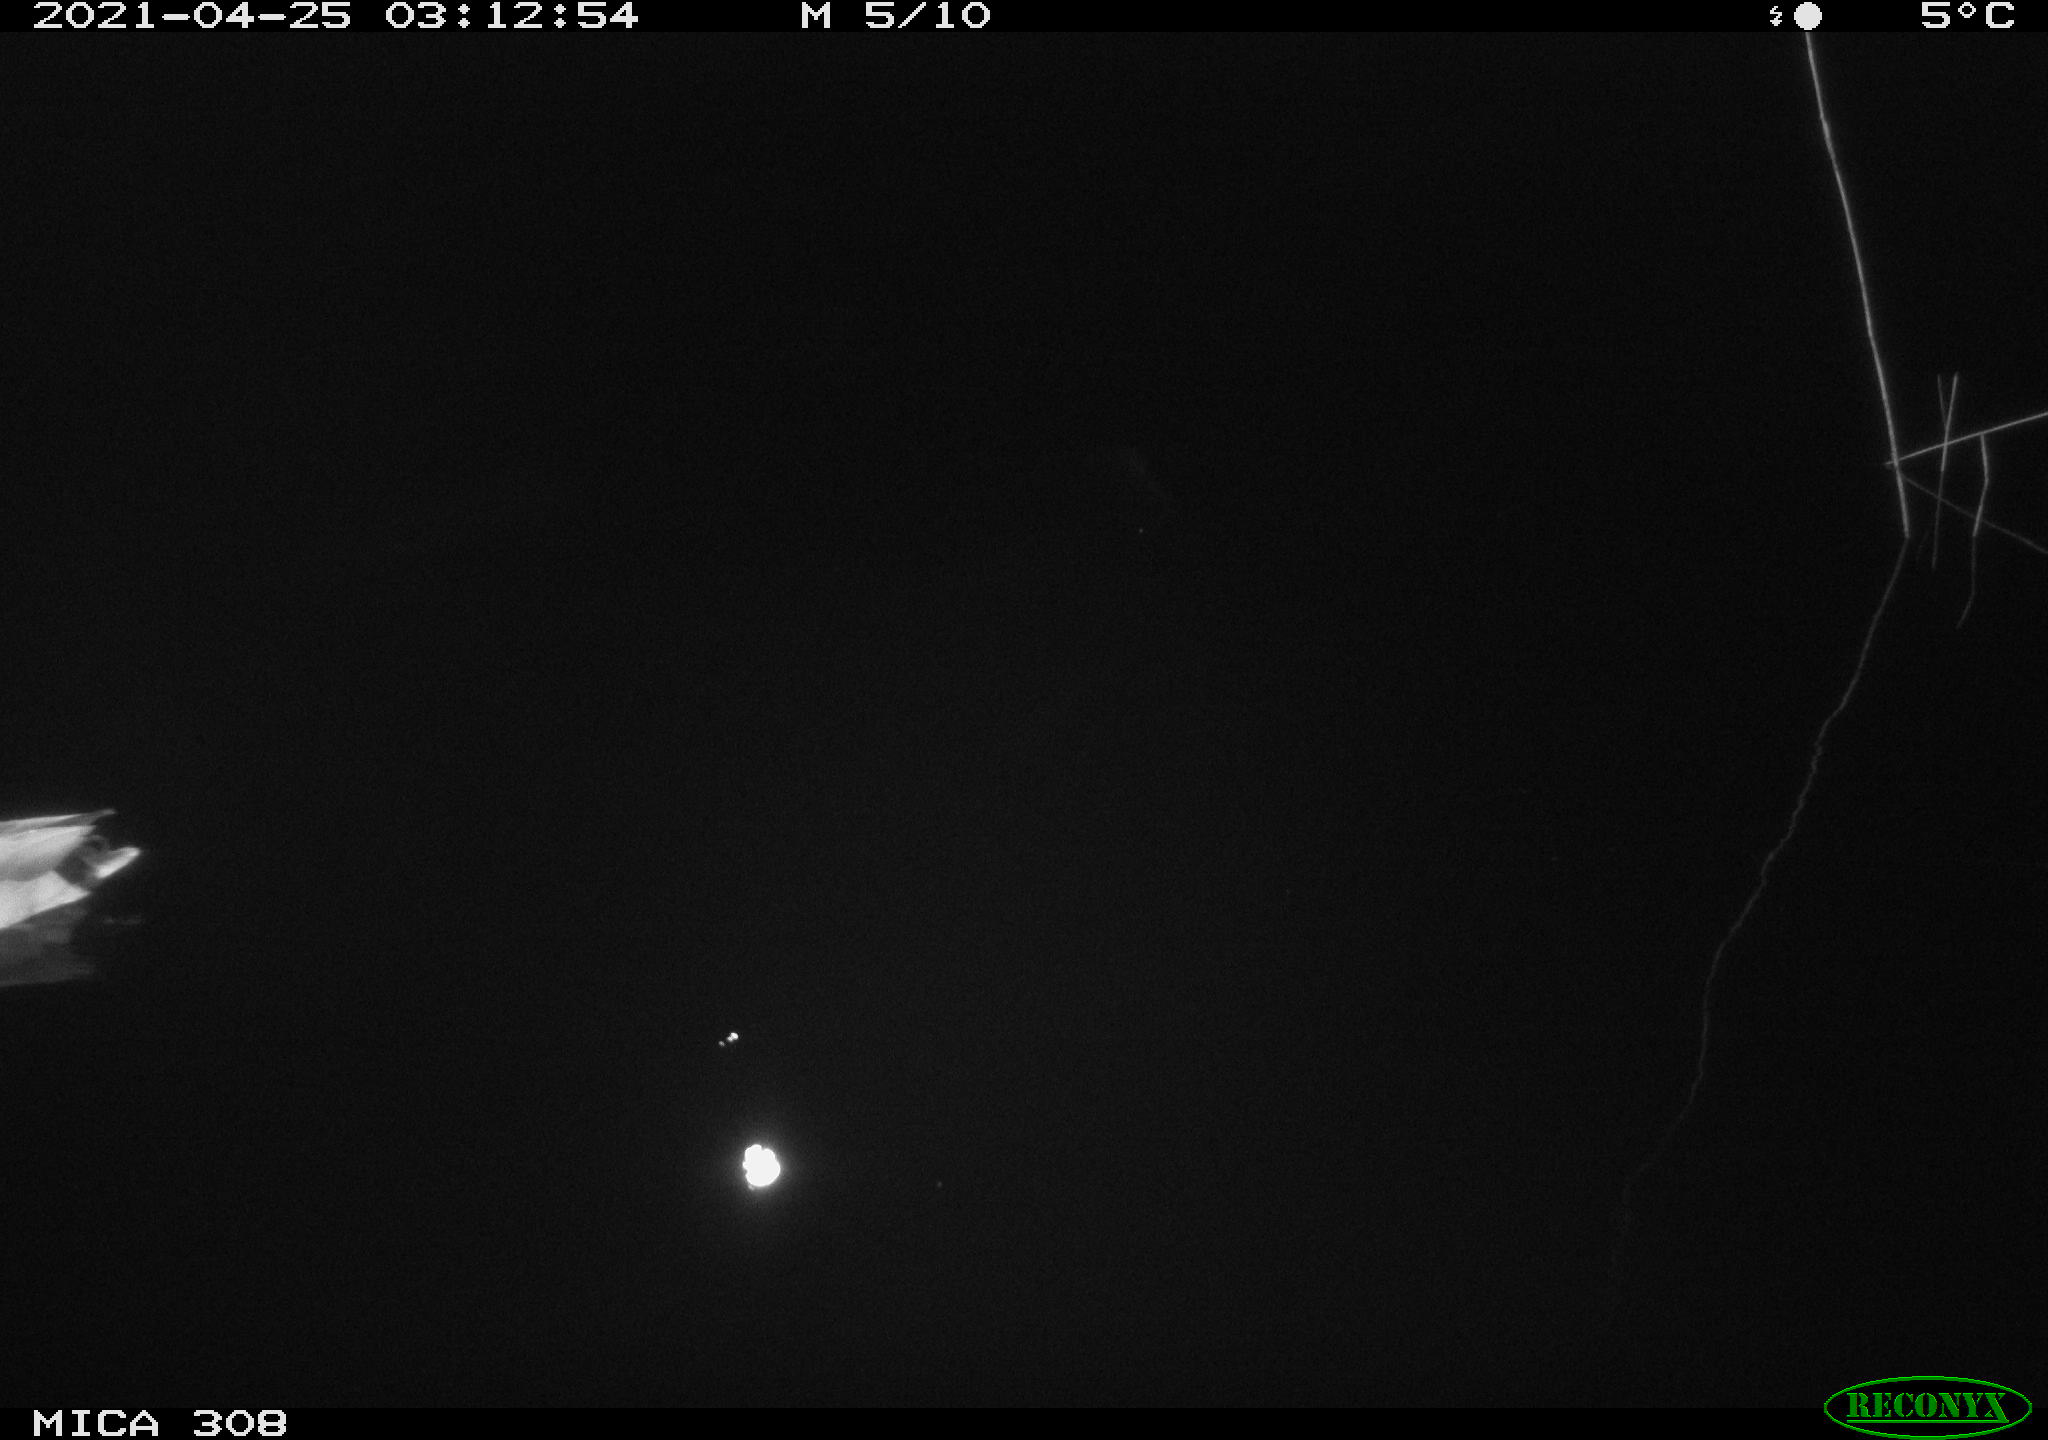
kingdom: Animalia
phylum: Chordata
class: Aves
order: Anseriformes
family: Anatidae
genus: Anas
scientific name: Anas platyrhynchos
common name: Mallard
